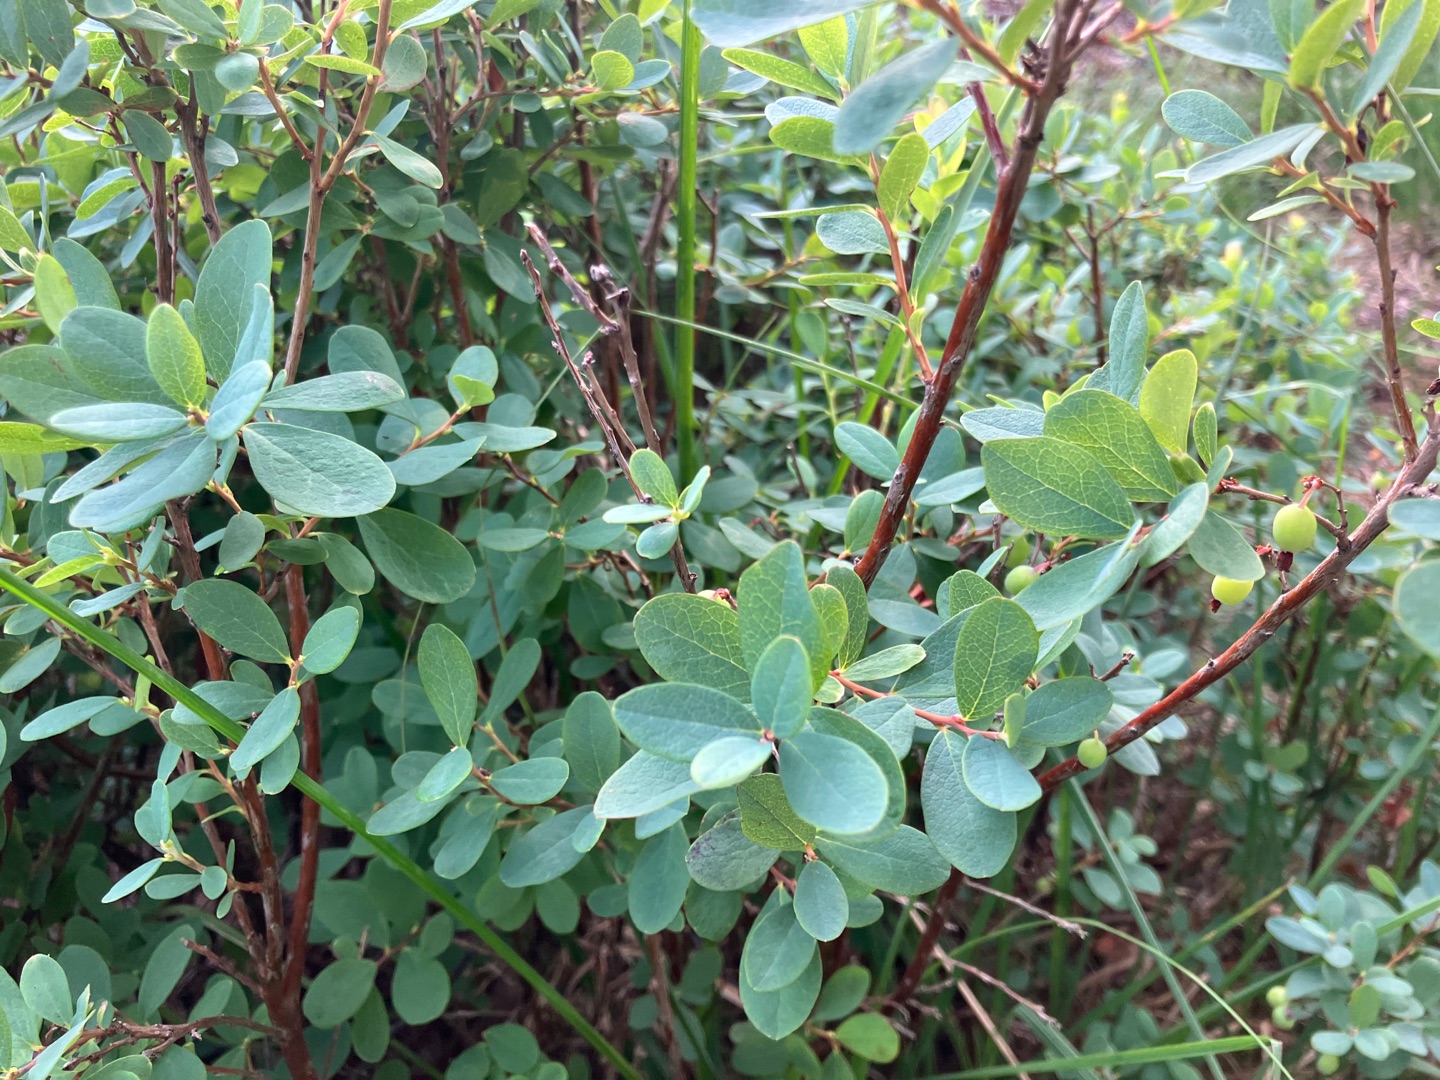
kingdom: Plantae
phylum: Tracheophyta
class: Magnoliopsida
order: Ericales
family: Ericaceae
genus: Vaccinium
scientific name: Vaccinium uliginosum
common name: Mose-bølle
